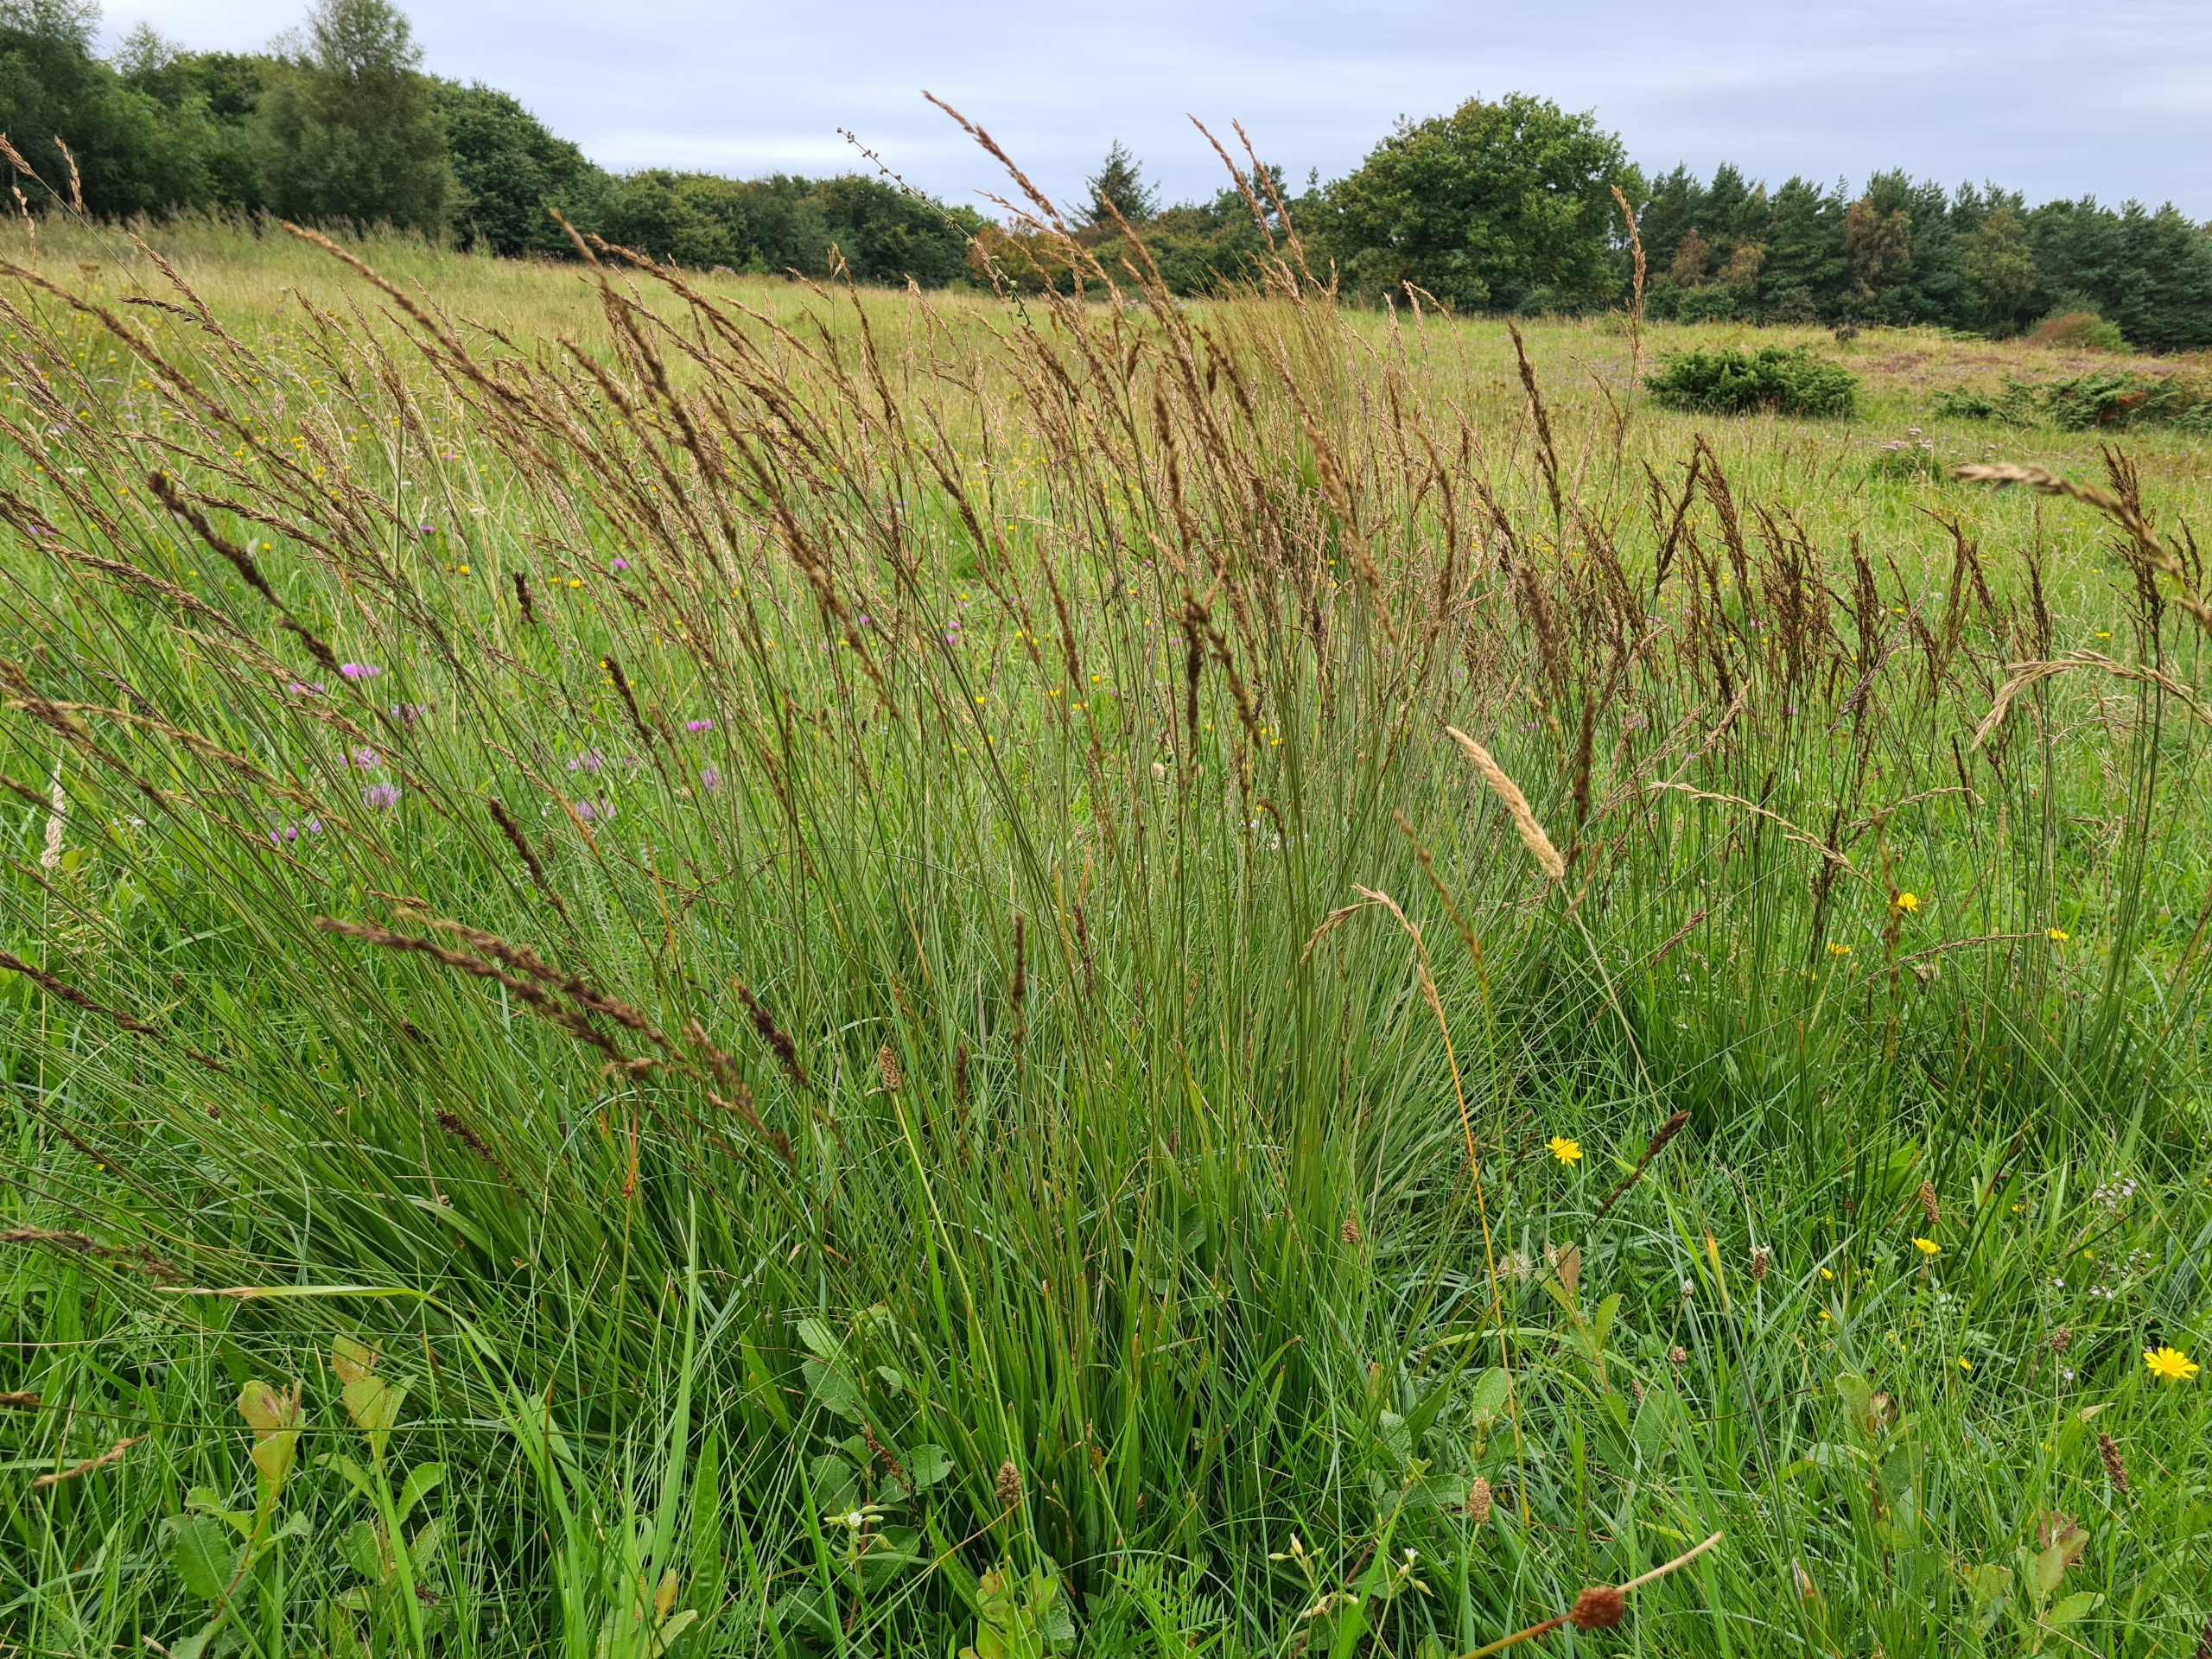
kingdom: Plantae
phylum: Tracheophyta
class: Liliopsida
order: Poales
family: Poaceae
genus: Molinia
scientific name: Molinia caerulea
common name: Blåtop
